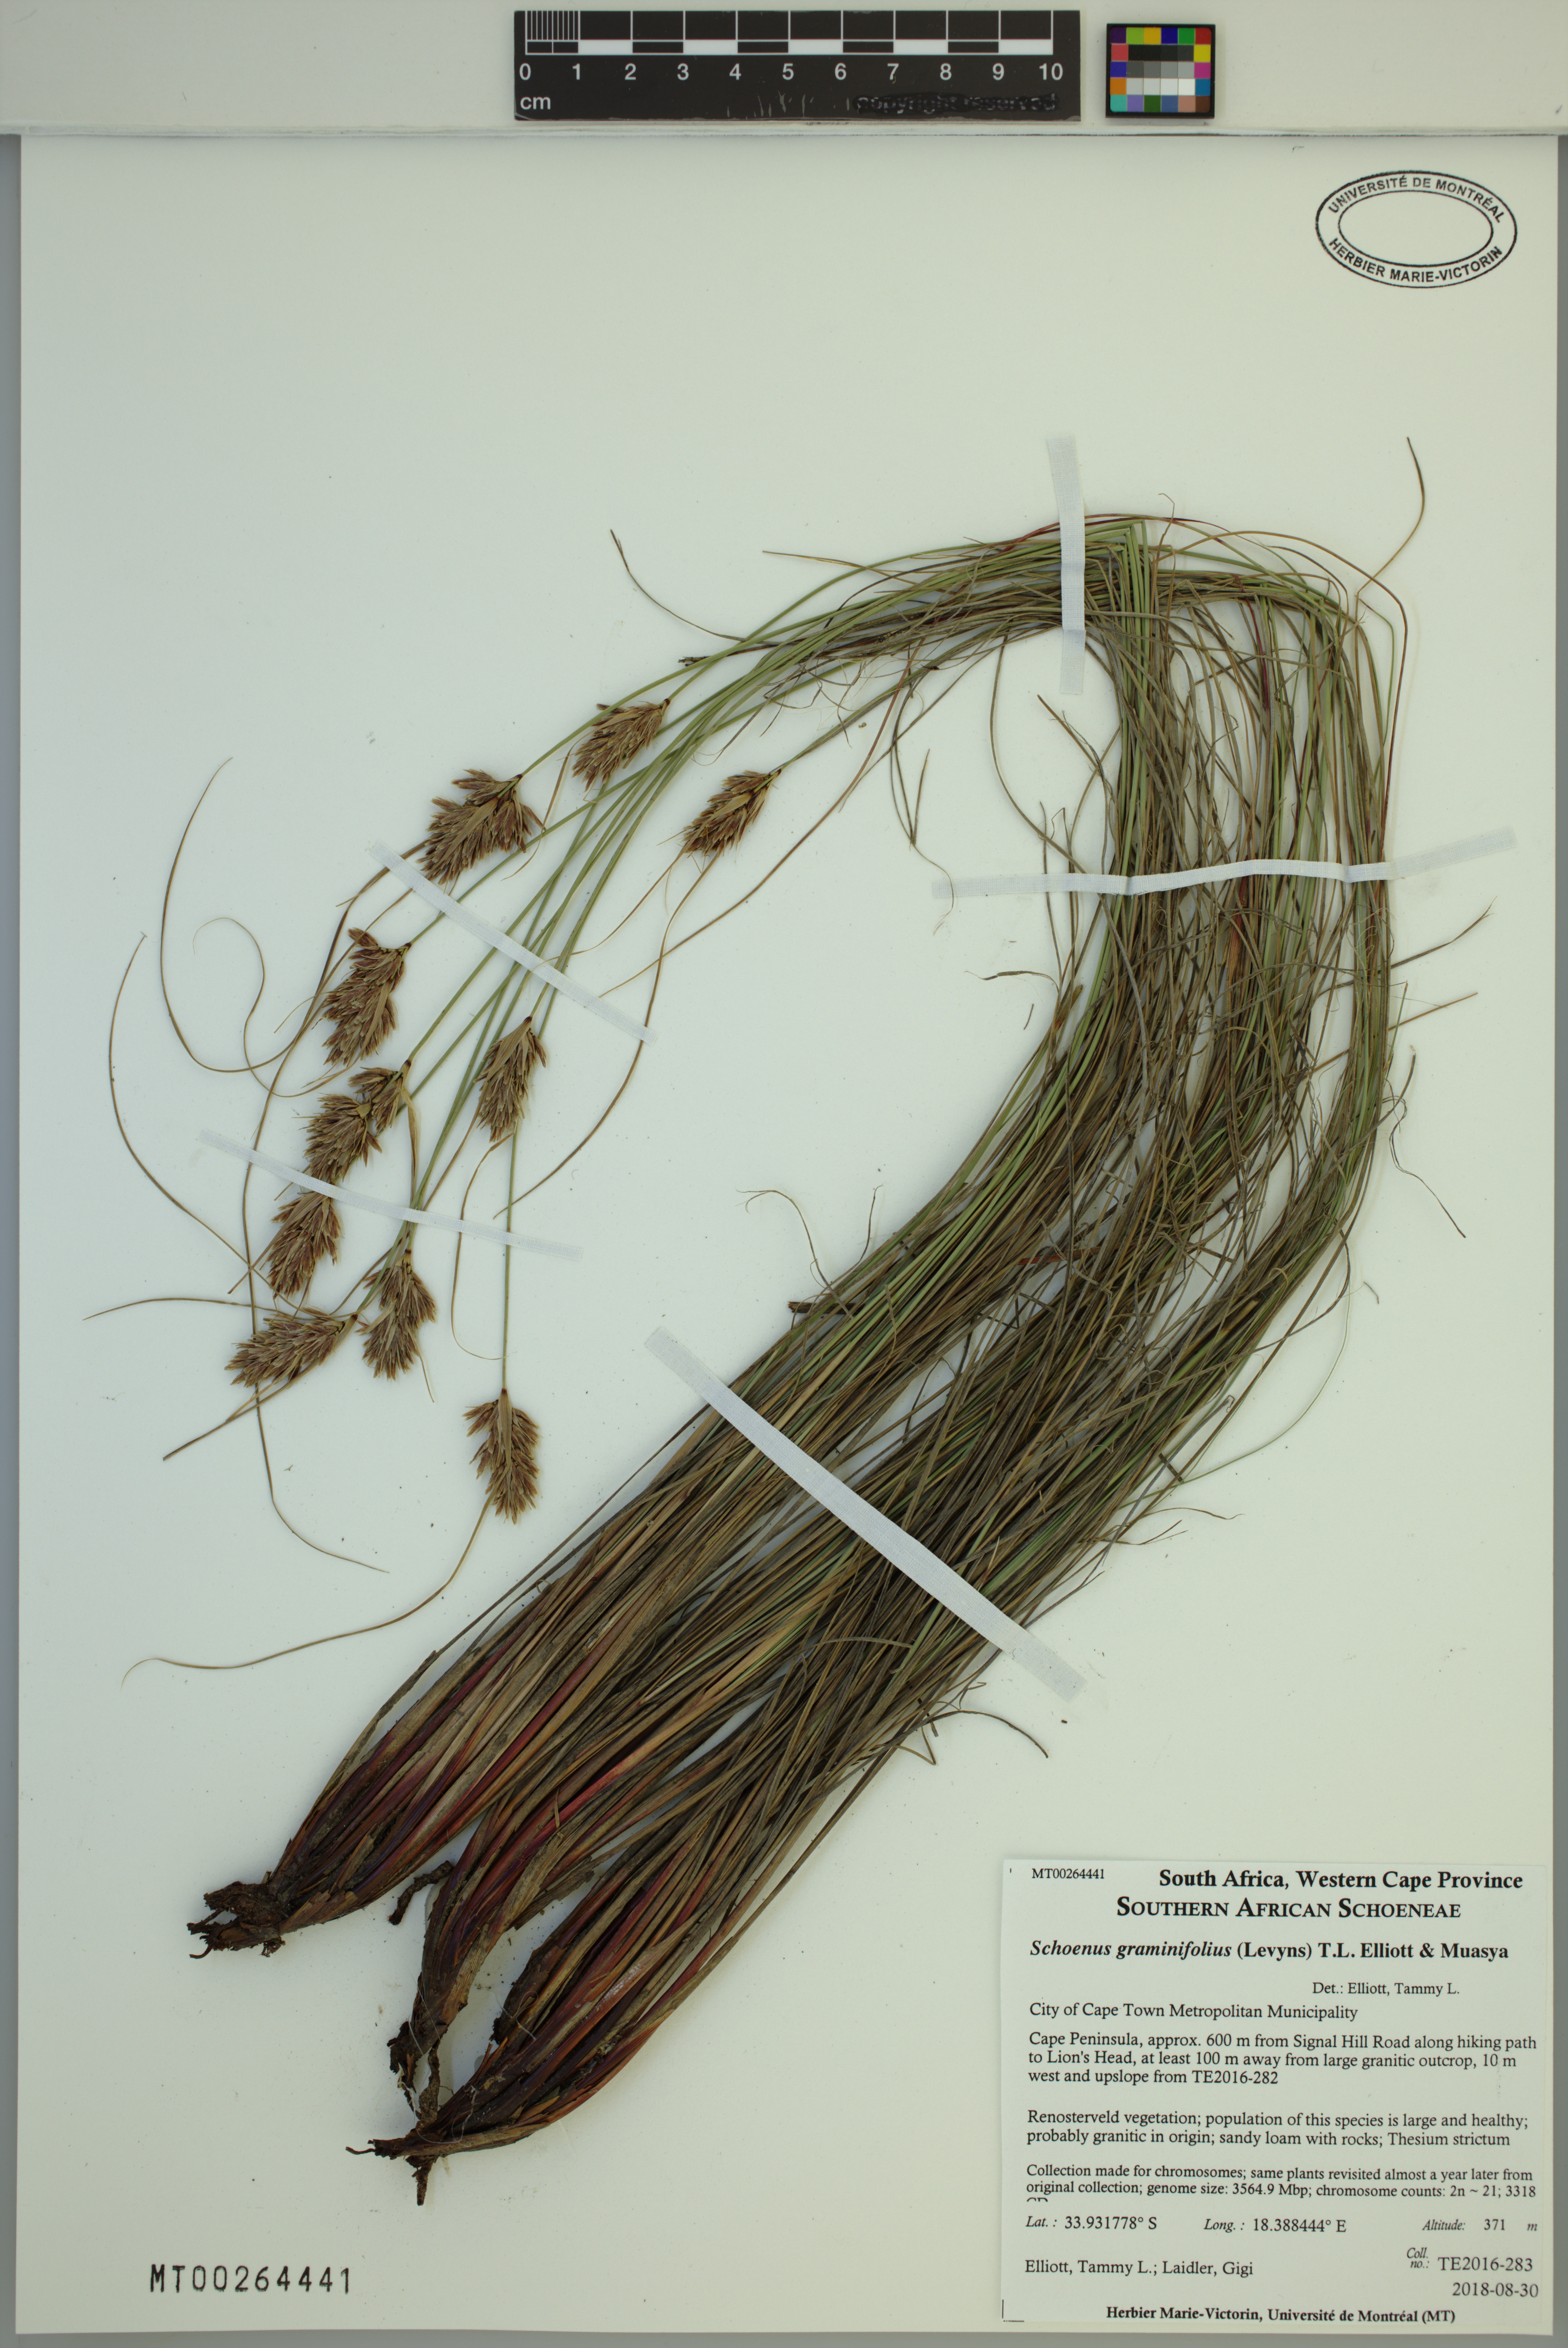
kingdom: Plantae
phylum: Tracheophyta
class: Liliopsida
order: Poales
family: Cyperaceae
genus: Schoenus
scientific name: Schoenus graminifolius
